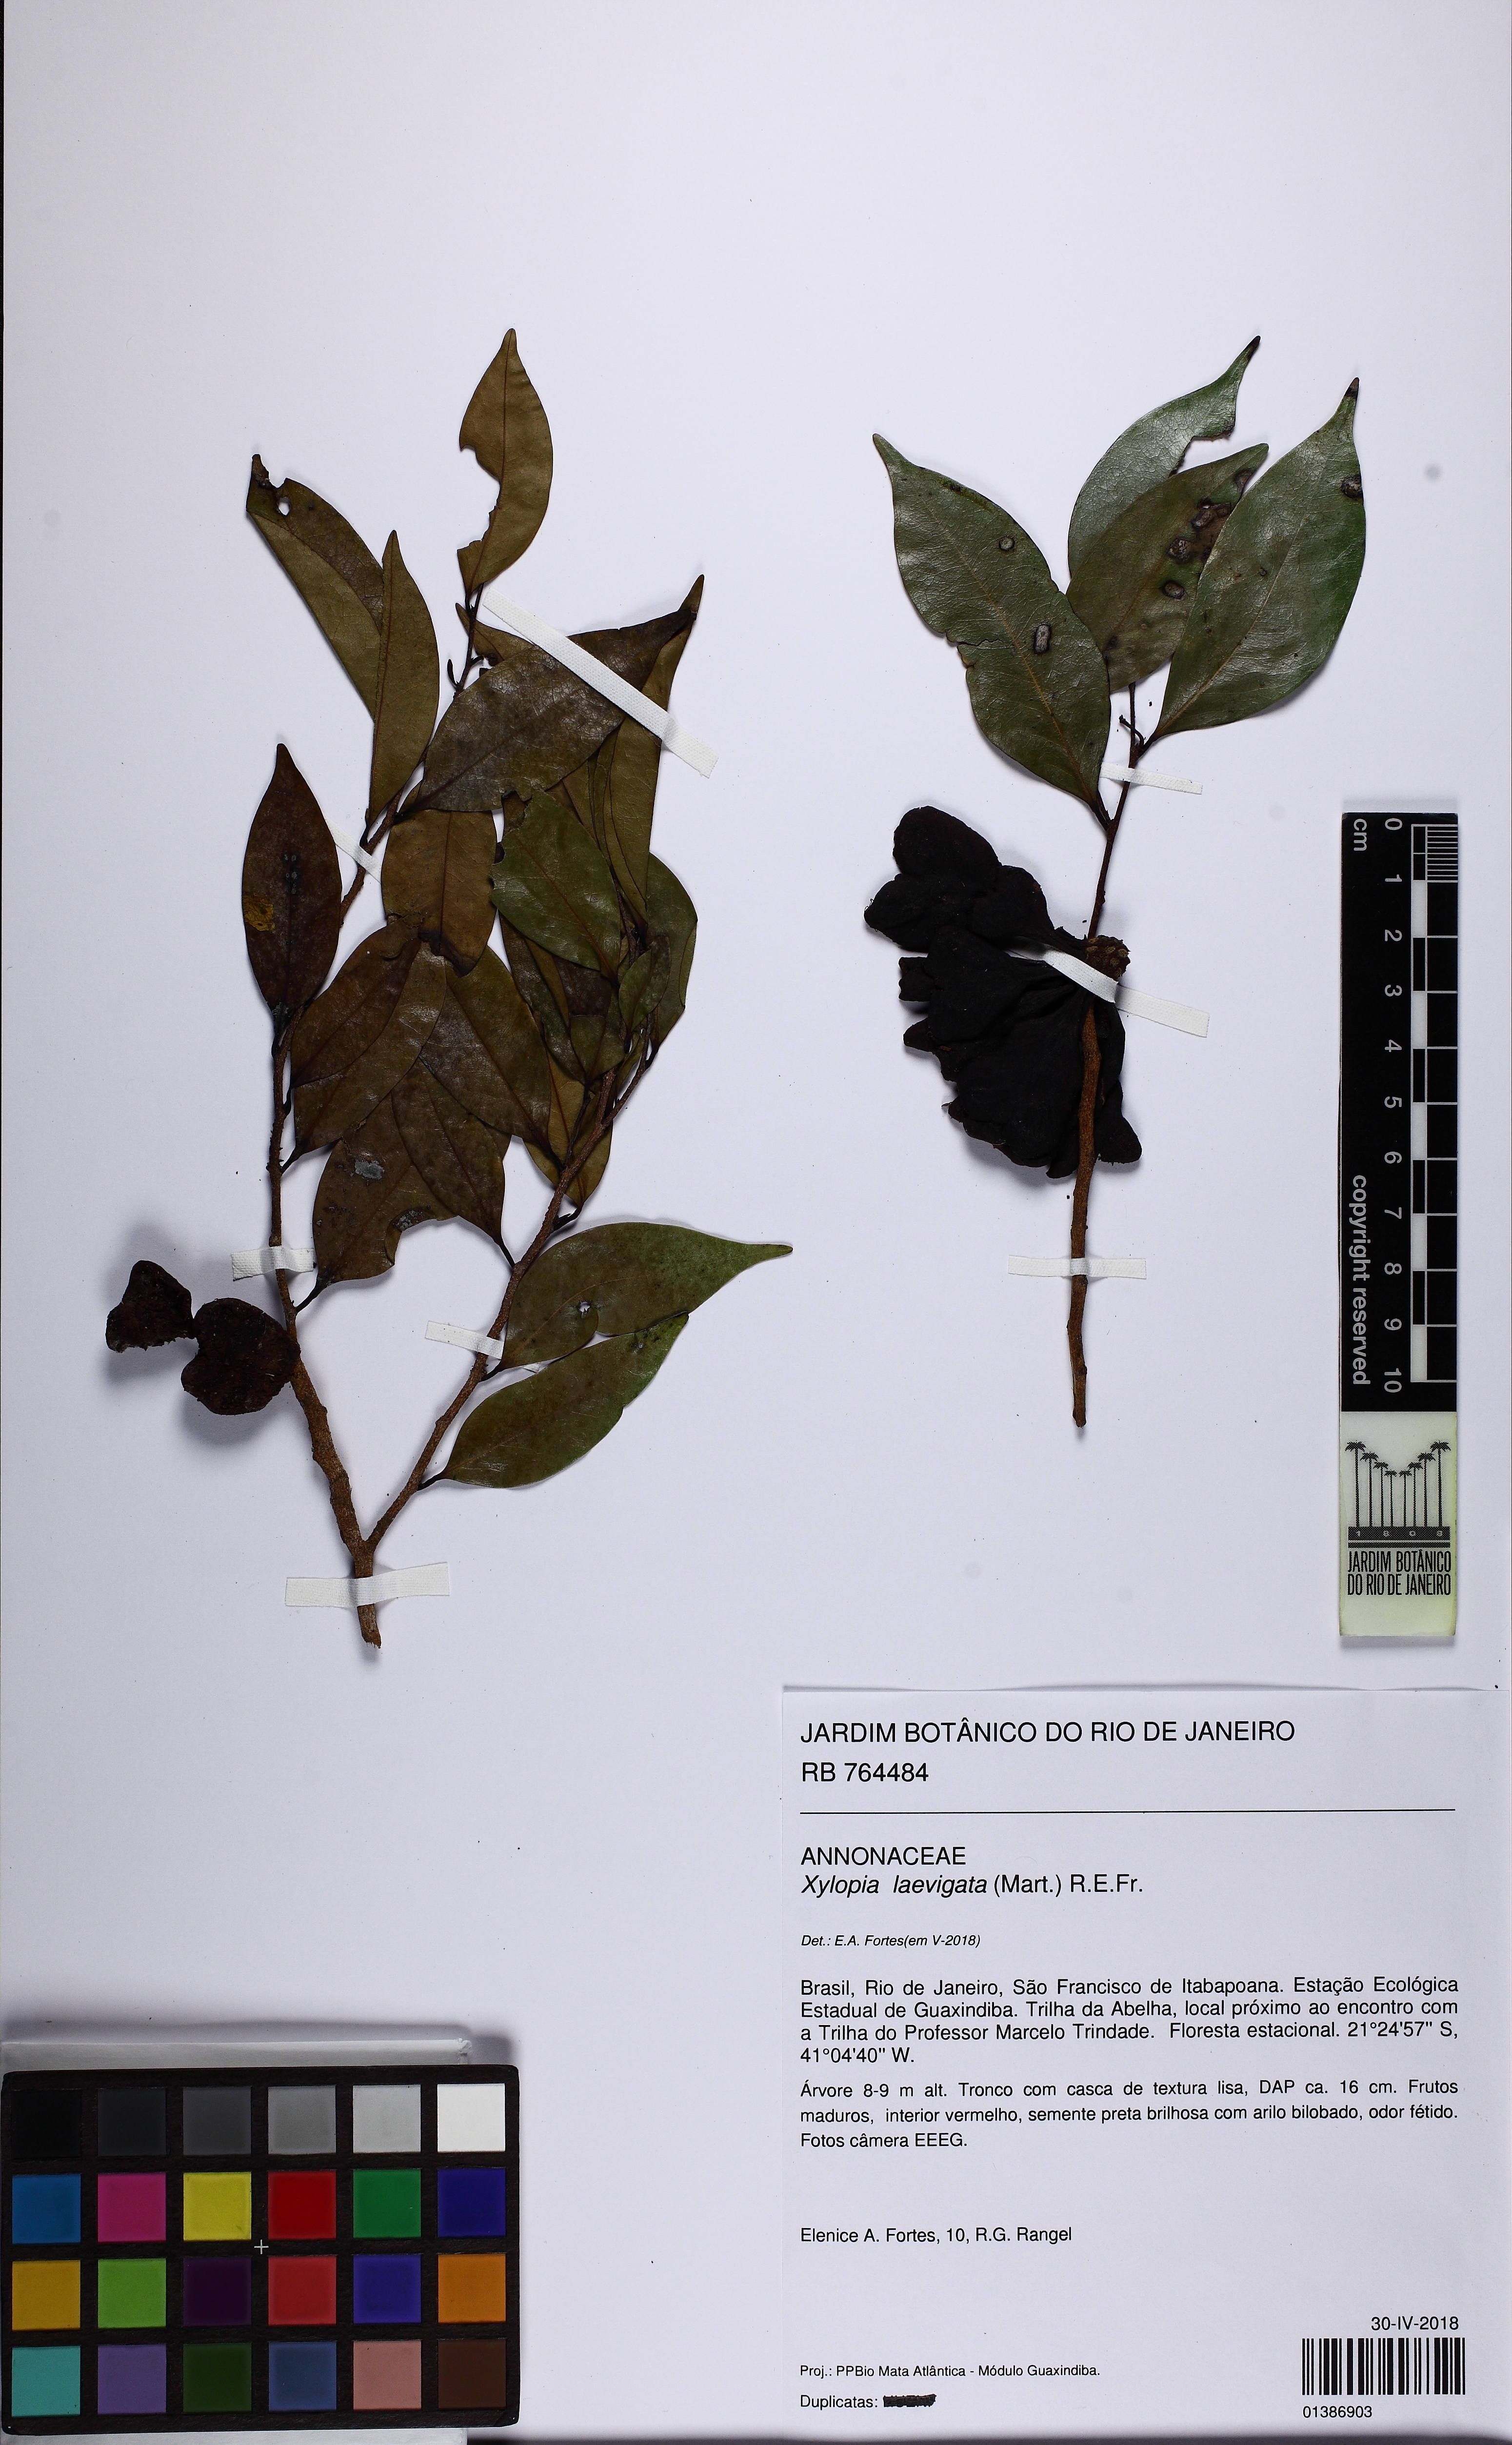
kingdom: Plantae
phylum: Tracheophyta
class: Magnoliopsida
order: Magnoliales
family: Annonaceae
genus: Xylopia
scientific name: Xylopia laevigata
